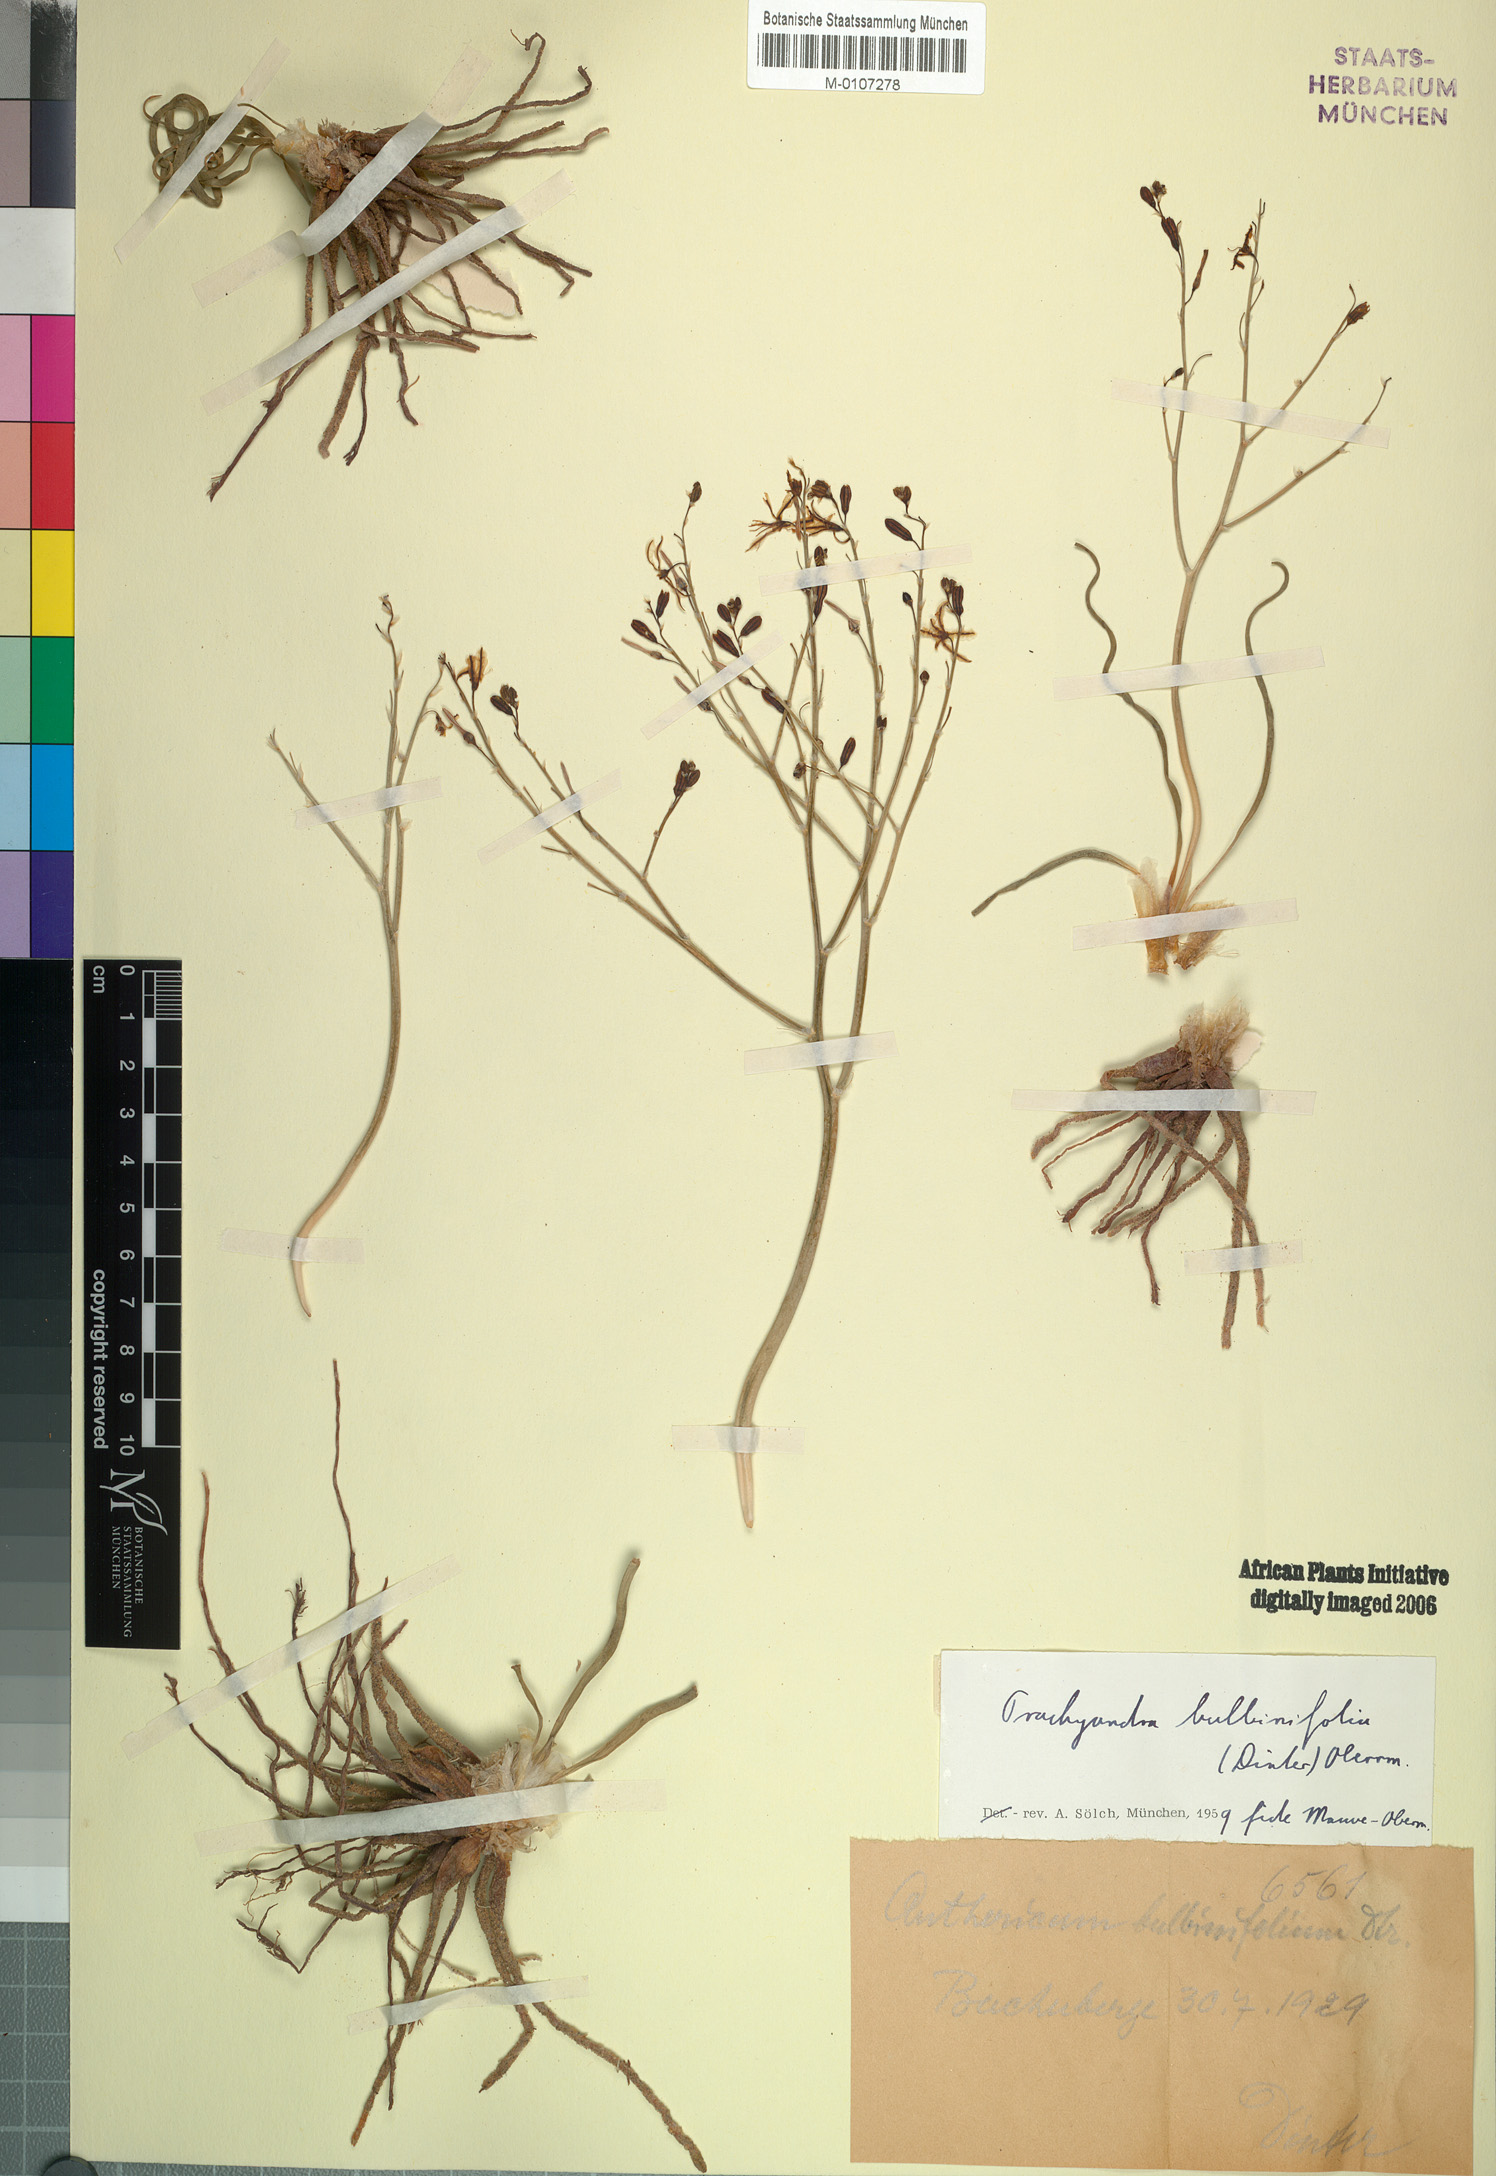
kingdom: Plantae
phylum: Tracheophyta
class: Liliopsida
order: Asparagales
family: Asphodelaceae
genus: Trachyandra
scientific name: Trachyandra bulbinifolia
